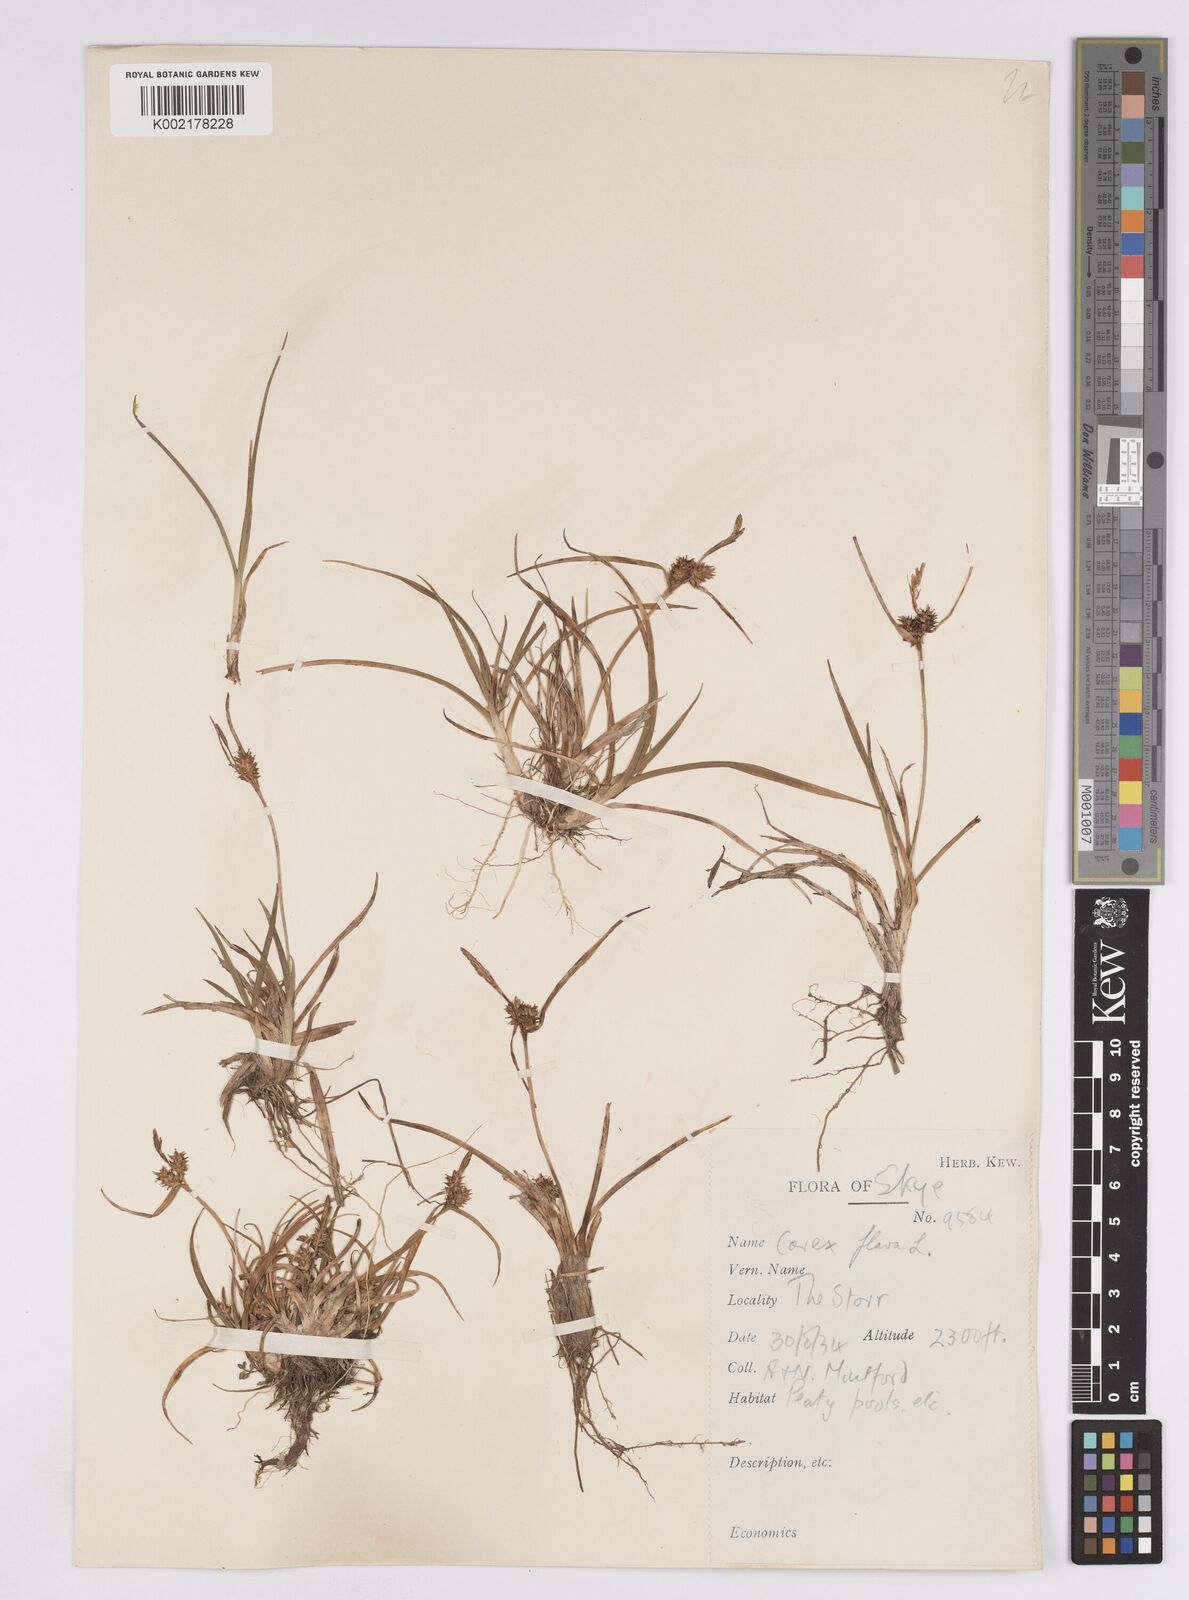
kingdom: Plantae
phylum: Tracheophyta
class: Liliopsida
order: Poales
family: Cyperaceae
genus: Carex
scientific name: Carex demissa
